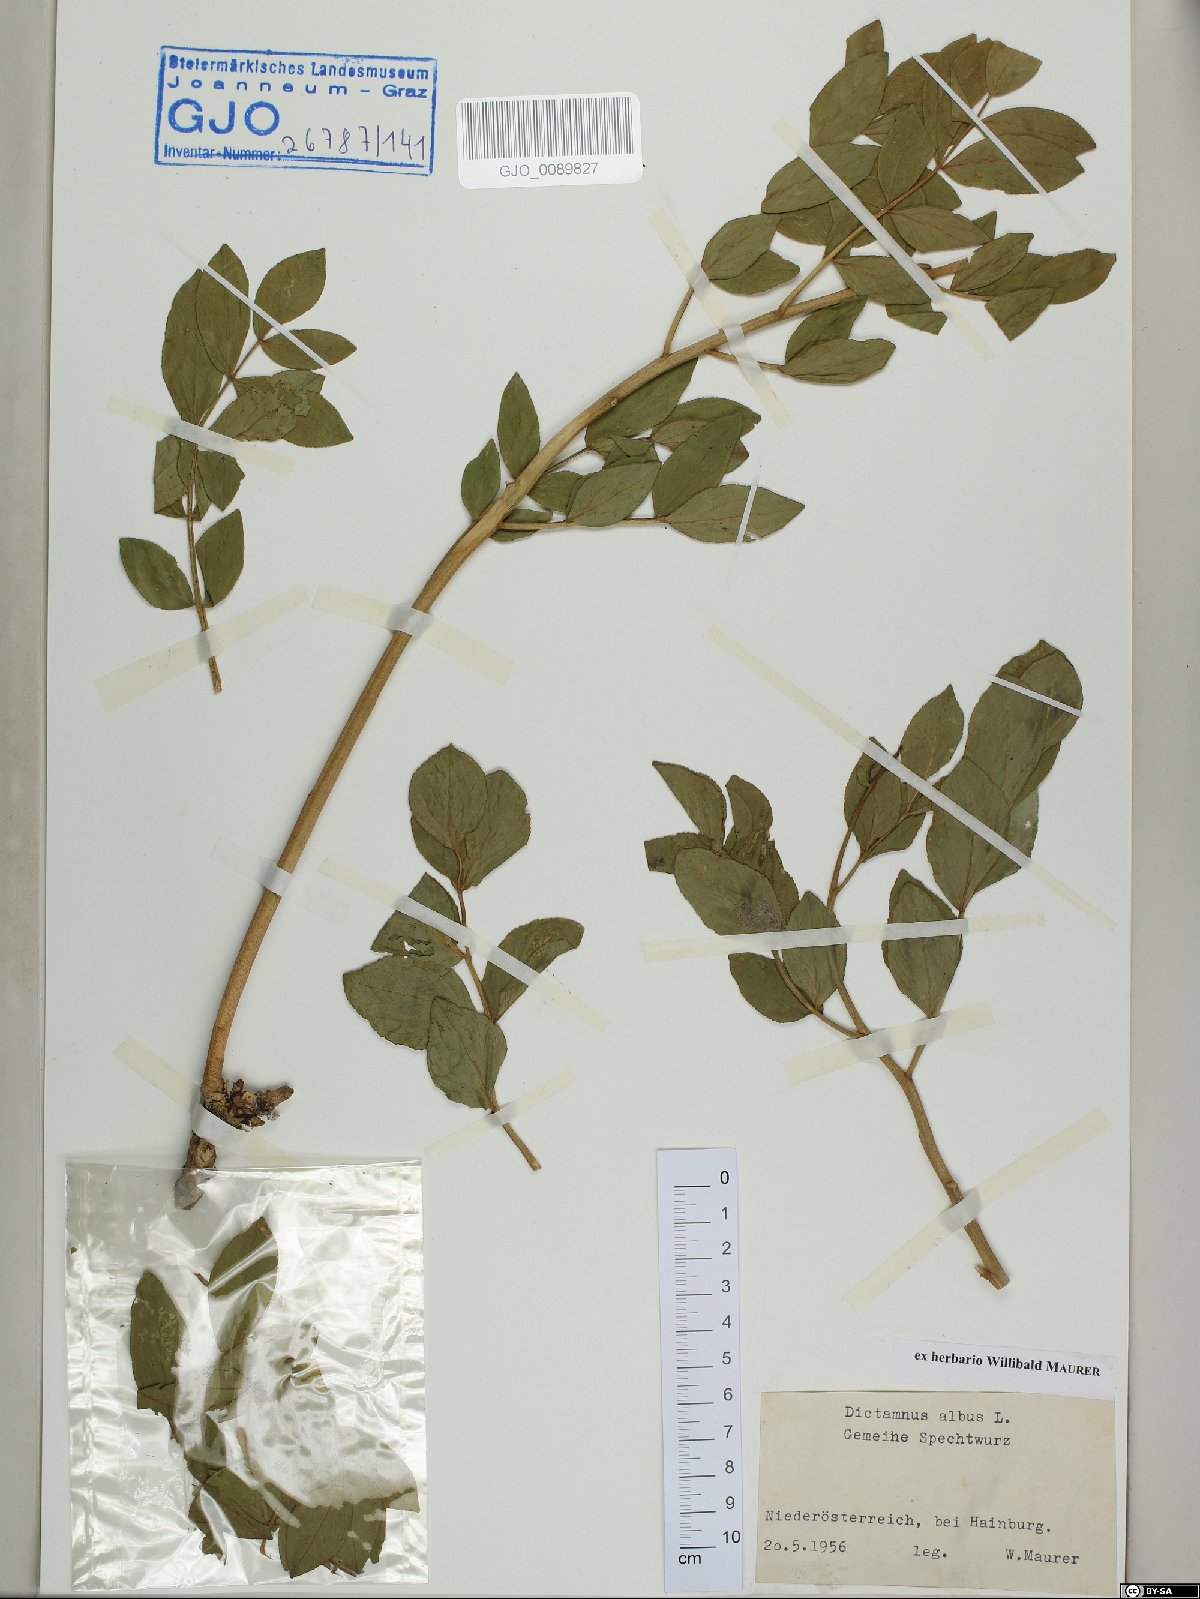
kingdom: Plantae
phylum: Tracheophyta
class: Magnoliopsida
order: Sapindales
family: Rutaceae
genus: Dictamnus
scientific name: Dictamnus albus
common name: Gasplant
